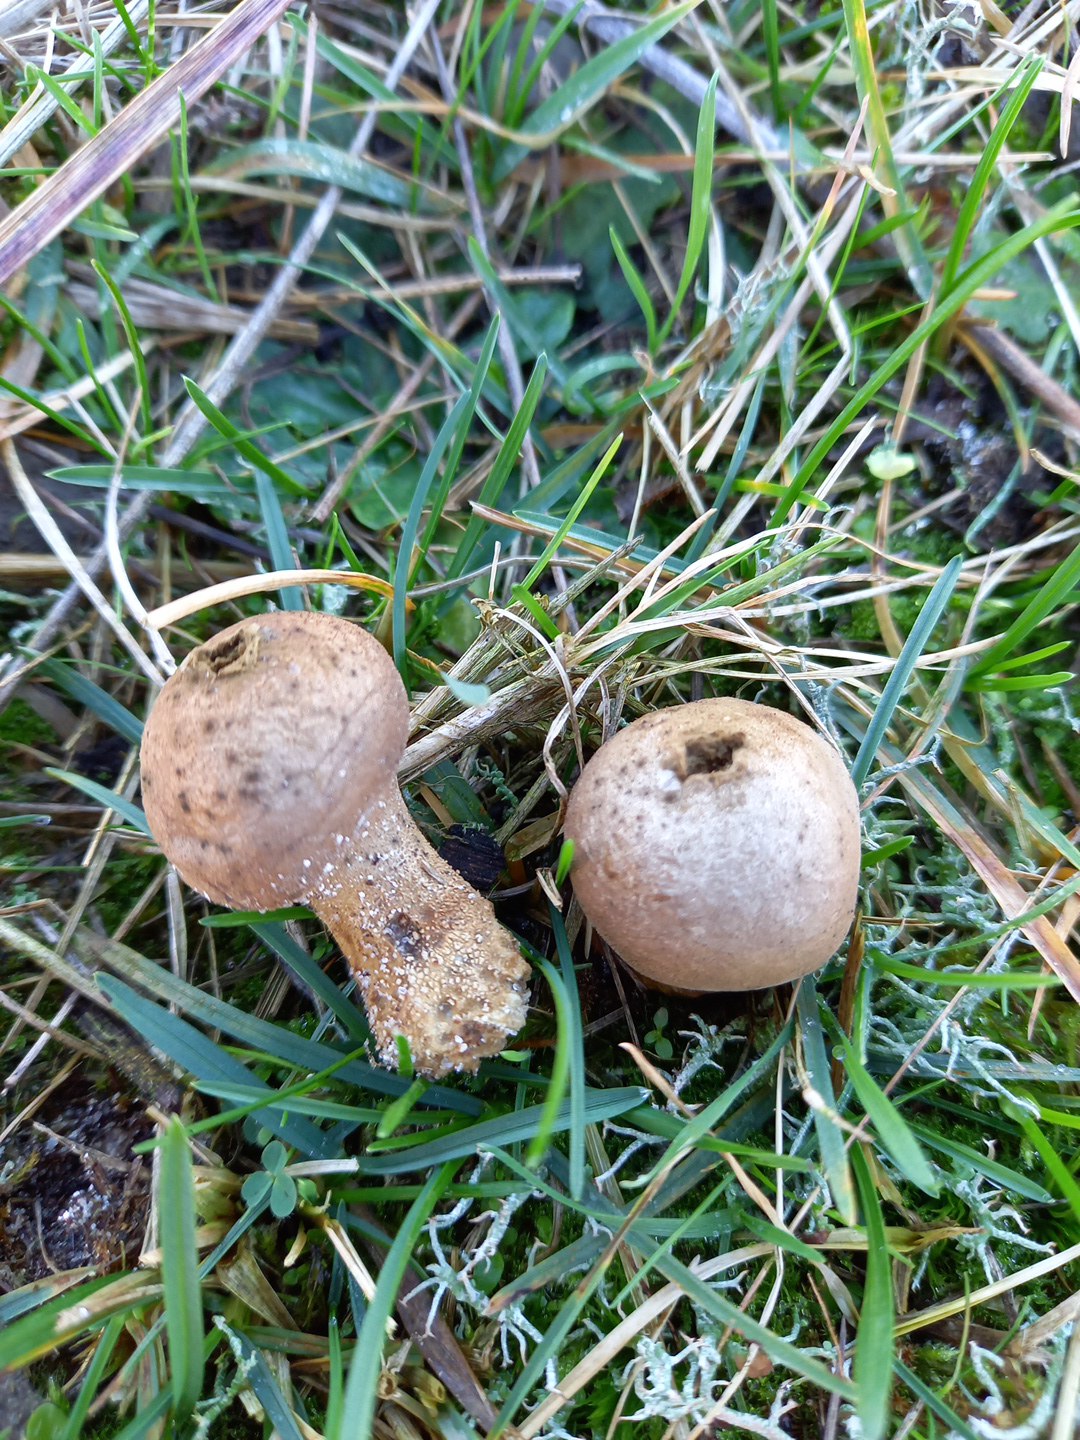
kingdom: Fungi
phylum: Basidiomycota
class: Agaricomycetes
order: Agaricales
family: Lycoperdaceae
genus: Lycoperdon
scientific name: Lycoperdon lividum
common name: mark-støvbold
